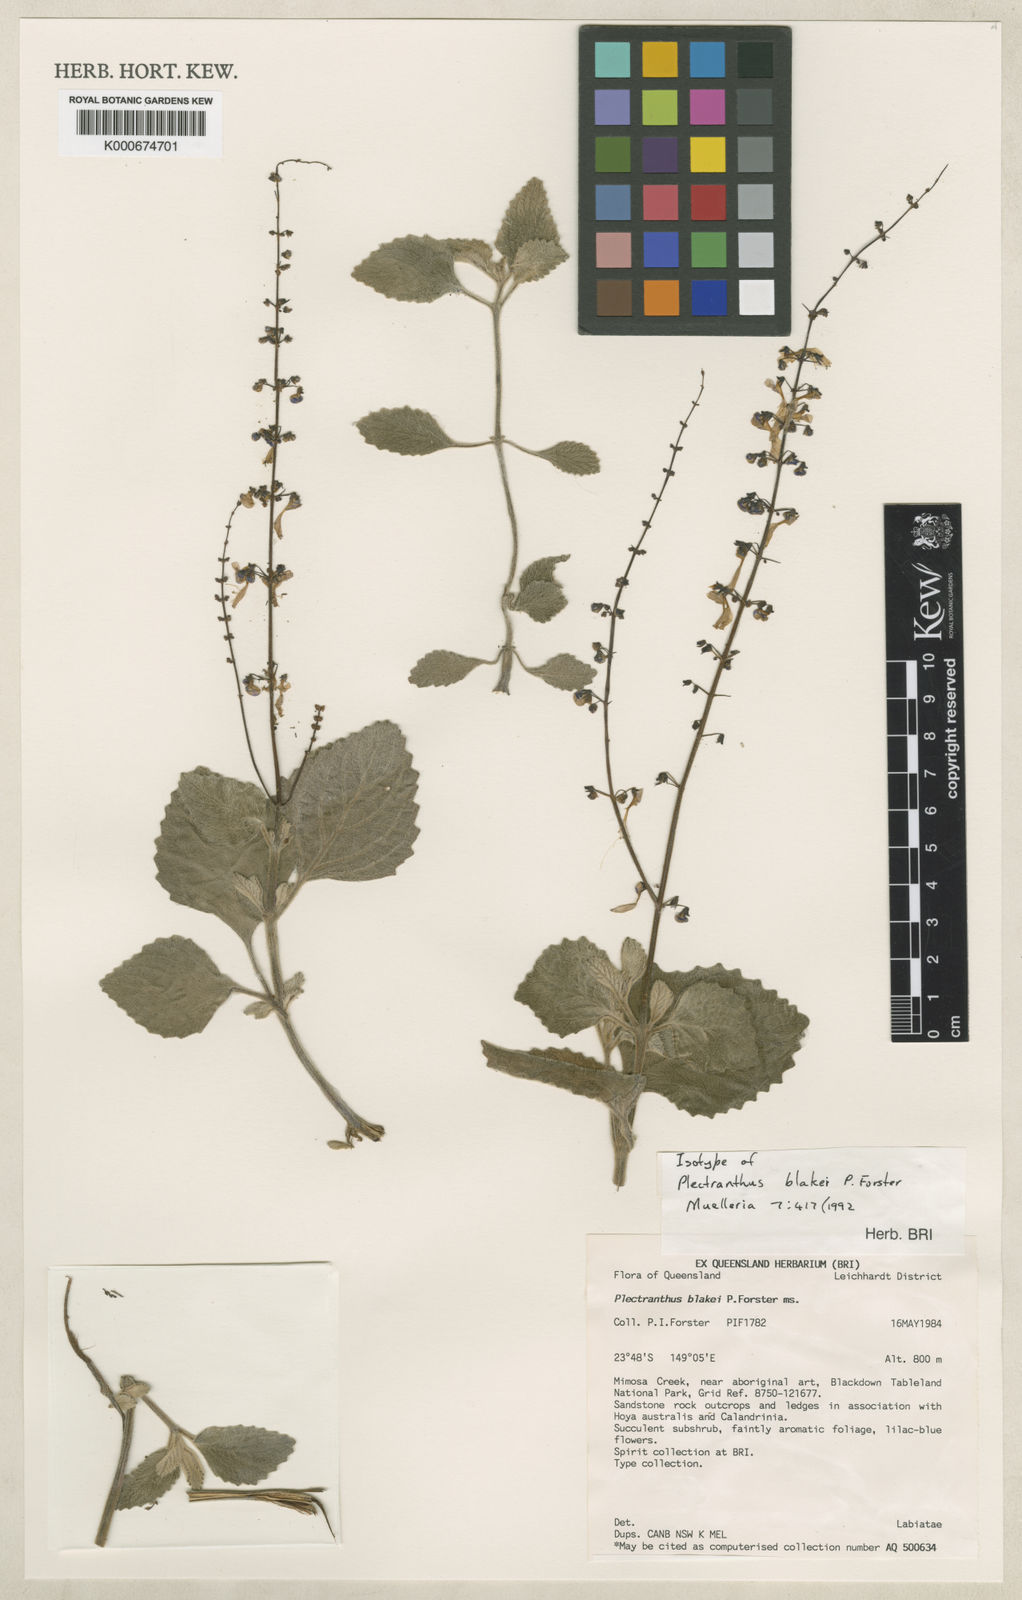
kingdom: Plantae
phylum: Tracheophyta
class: Magnoliopsida
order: Lamiales
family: Lamiaceae
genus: Coleus
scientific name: Coleus blakei
